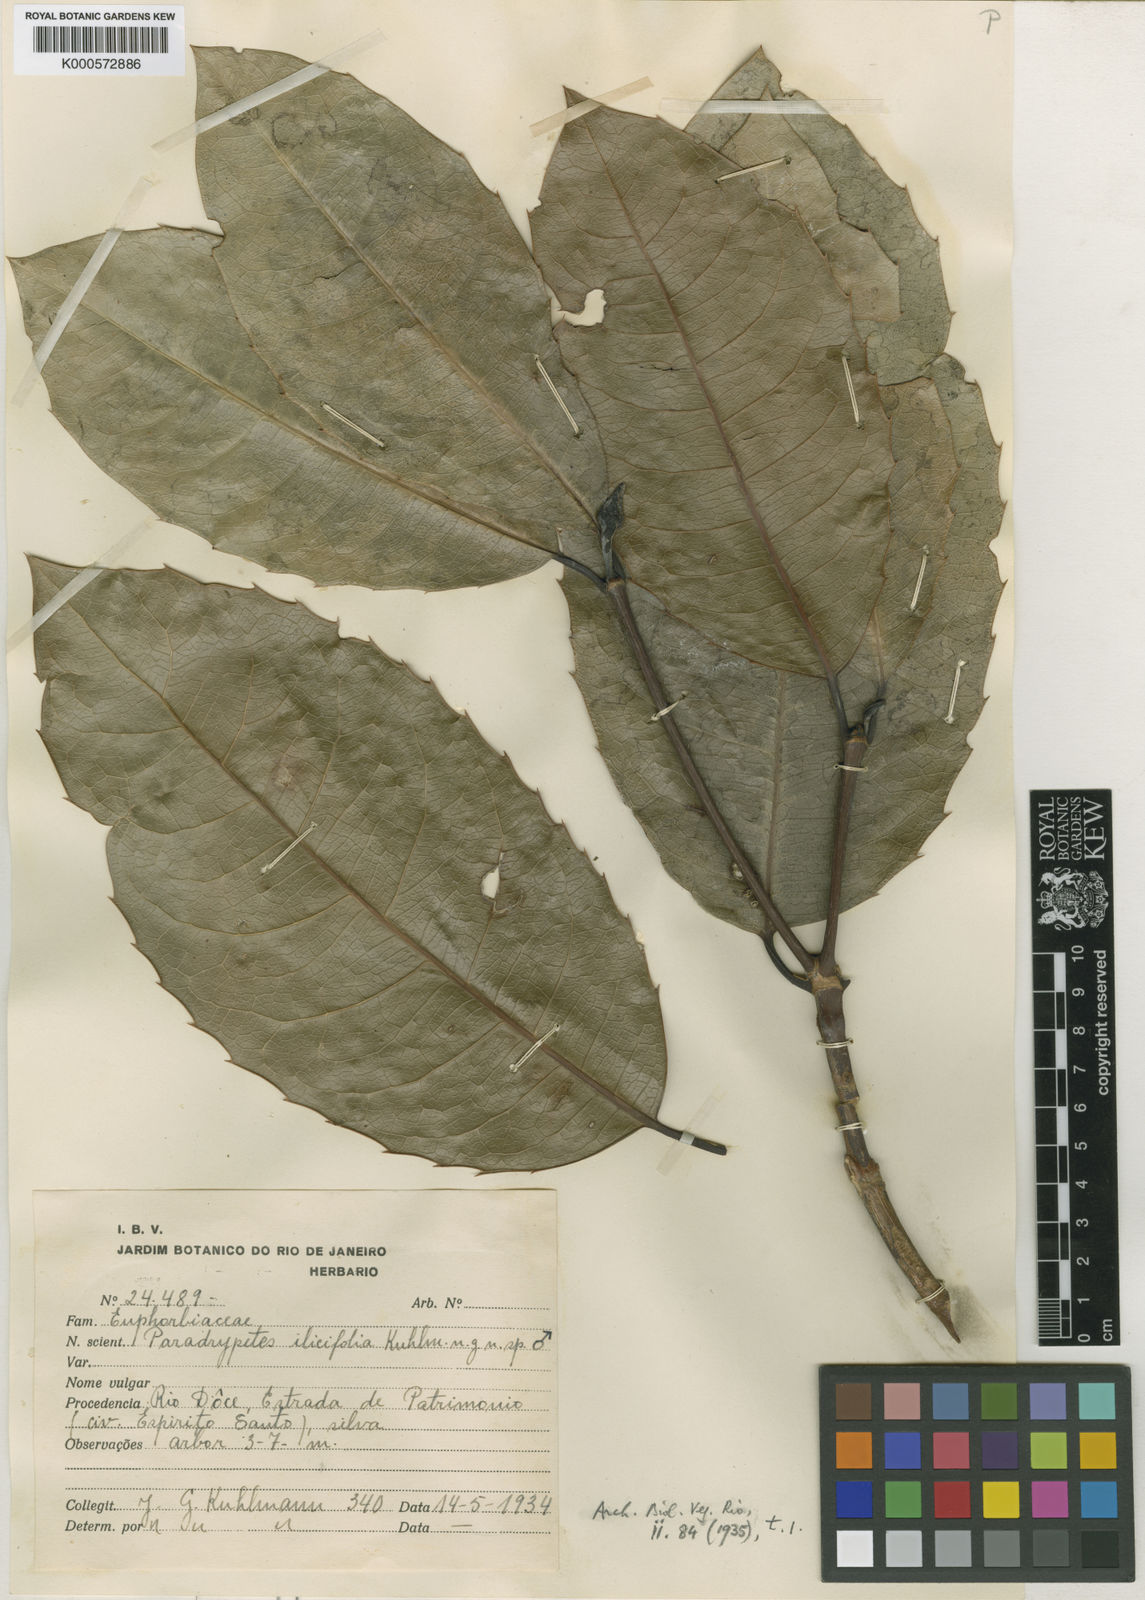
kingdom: Plantae
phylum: Tracheophyta
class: Magnoliopsida
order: Malpighiales
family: Rhizophoraceae
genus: Paradrypetes
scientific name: Paradrypetes ilicifolia
